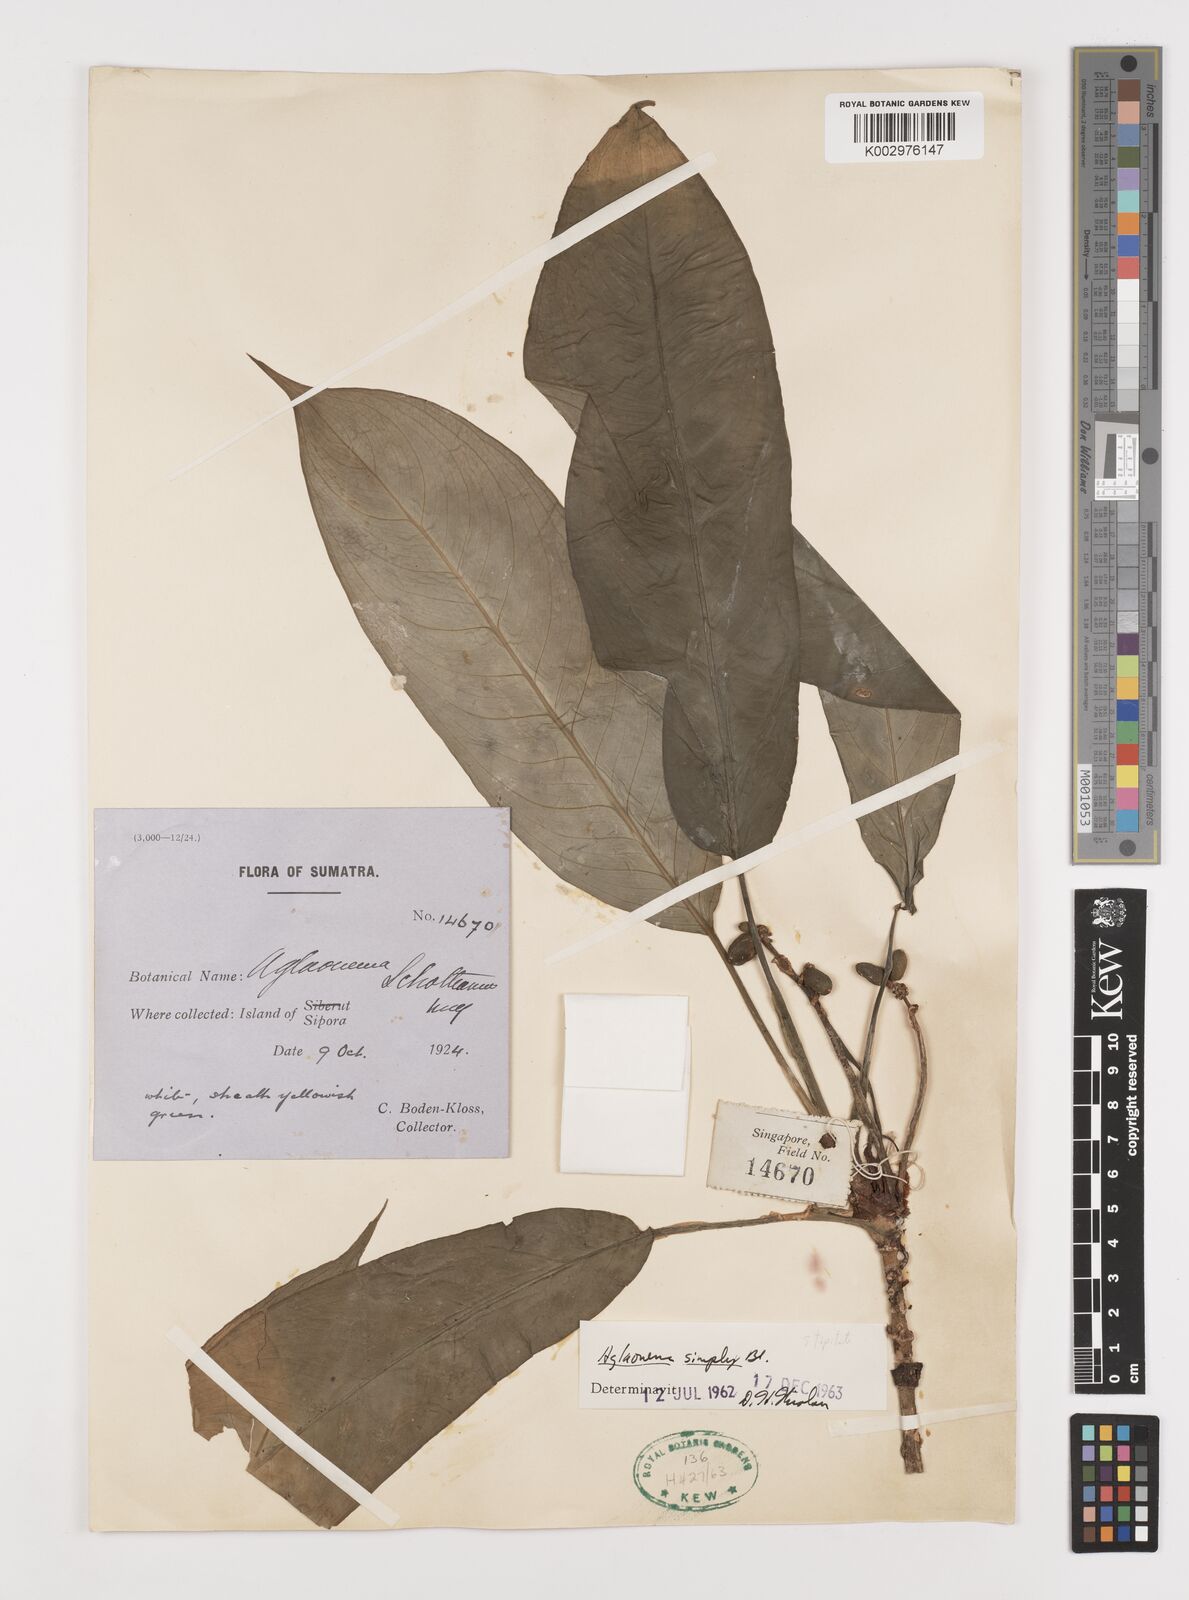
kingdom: Plantae
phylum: Tracheophyta
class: Liliopsida
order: Alismatales
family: Araceae
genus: Aglaonema
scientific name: Aglaonema simplex
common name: Malayan-sword
